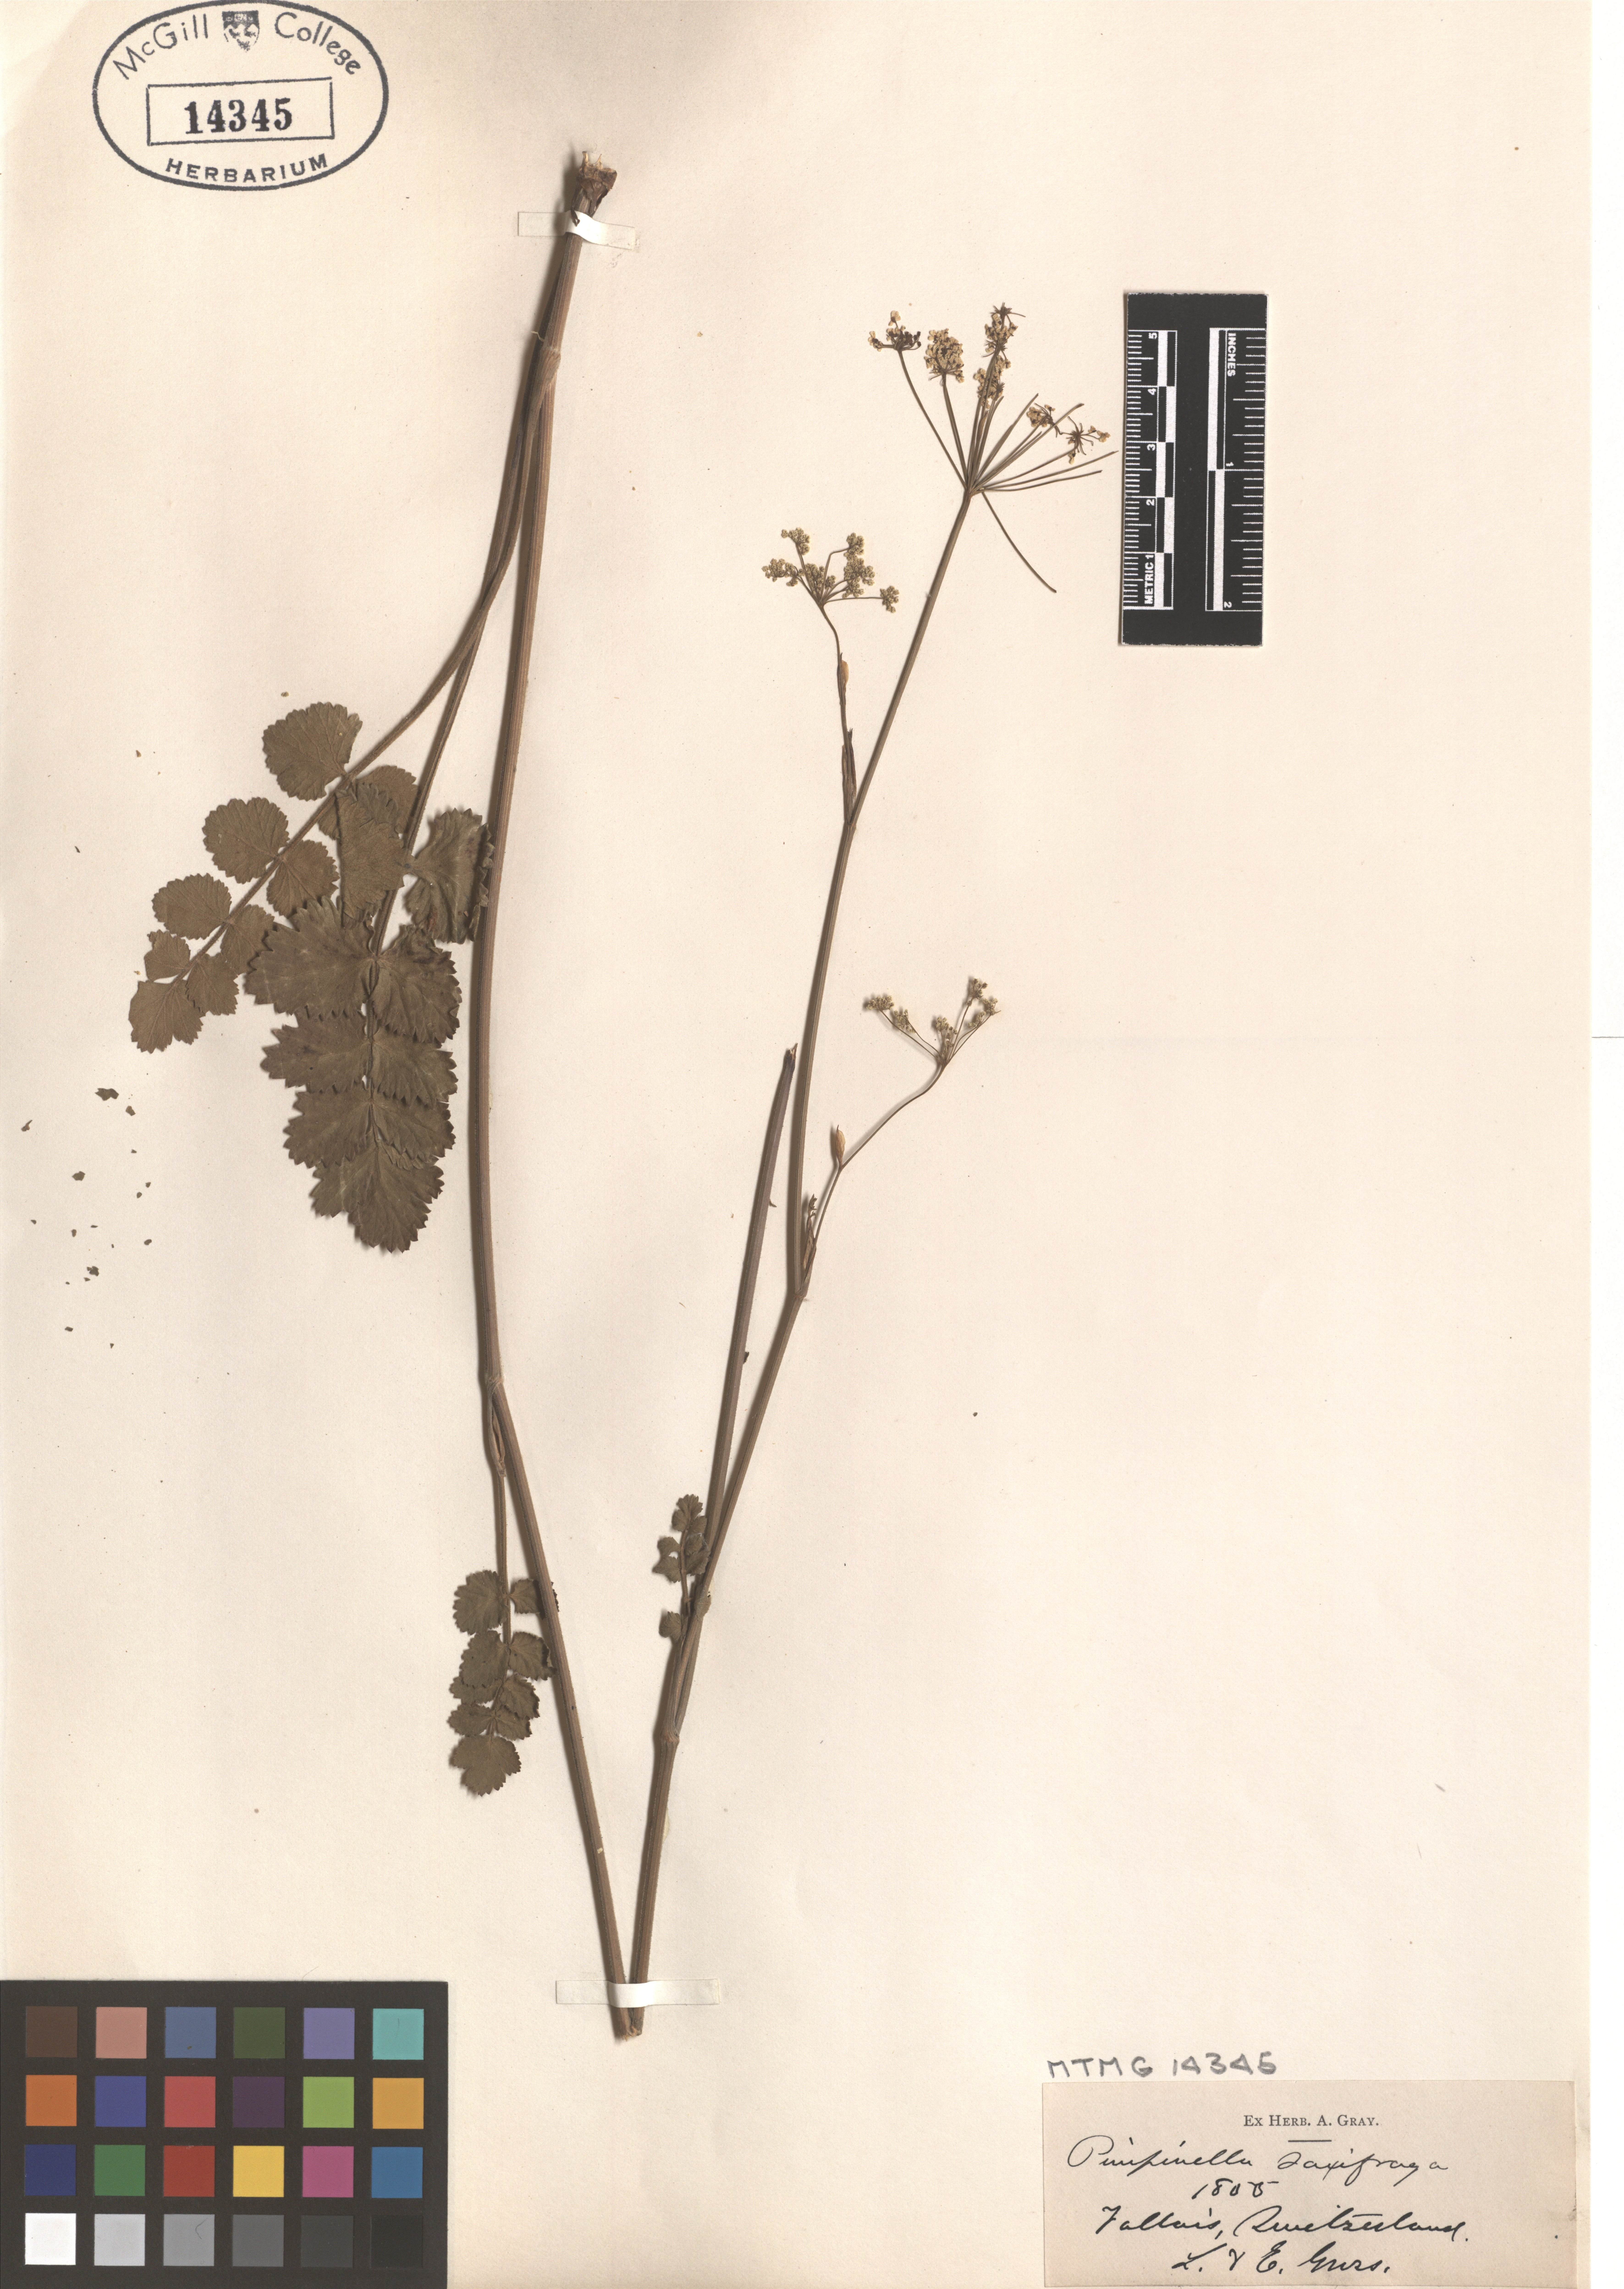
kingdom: Plantae
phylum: Tracheophyta
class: Magnoliopsida
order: Apiales
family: Apiaceae
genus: Pimpinella
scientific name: Pimpinella saxifraga
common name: Burnet-saxifrage
